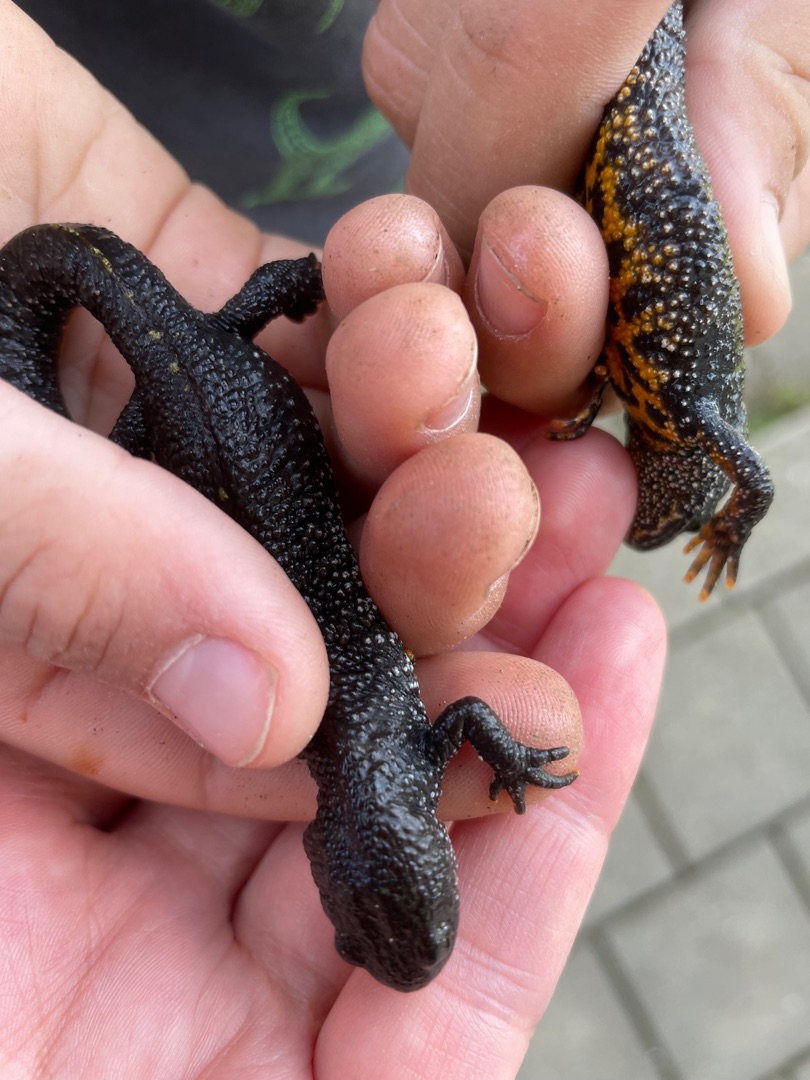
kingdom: Animalia
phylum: Chordata
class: Amphibia
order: Caudata
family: Salamandridae
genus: Triturus
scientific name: Triturus cristatus
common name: Stor vandsalamander
